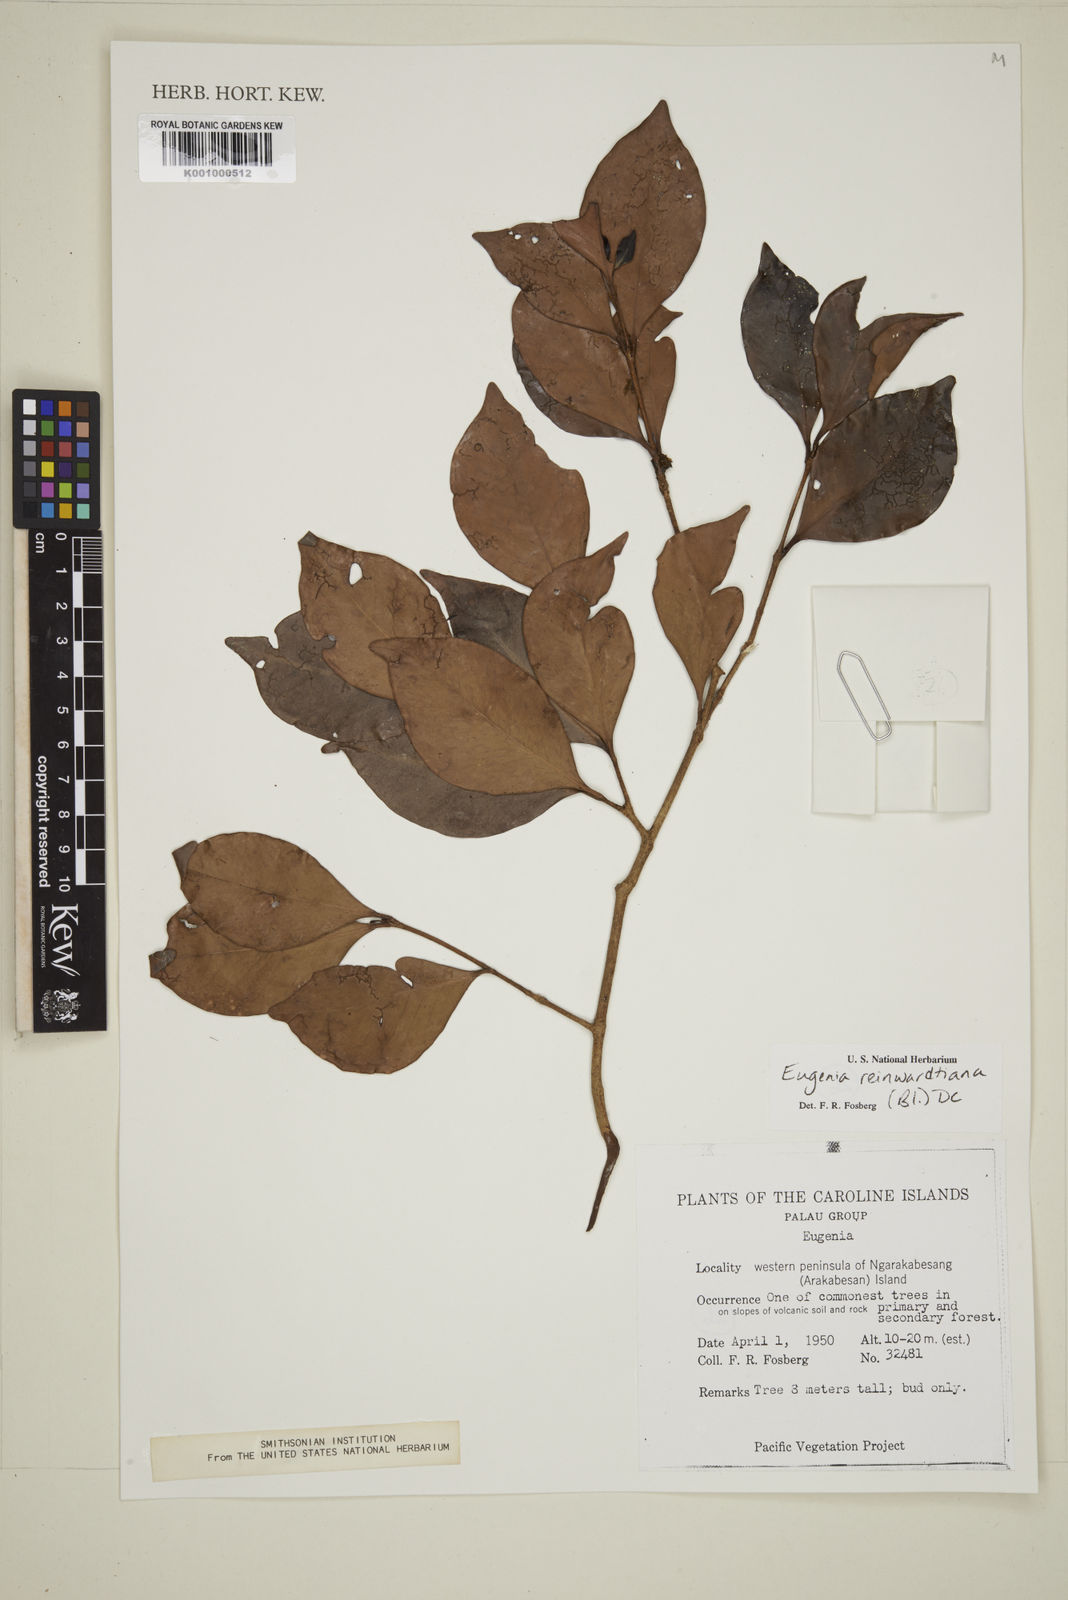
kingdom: Plantae
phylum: Tracheophyta
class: Magnoliopsida
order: Myrtales
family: Myrtaceae
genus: Eugenia
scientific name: Eugenia reinwardtiana
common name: Cedar bay-cherry
